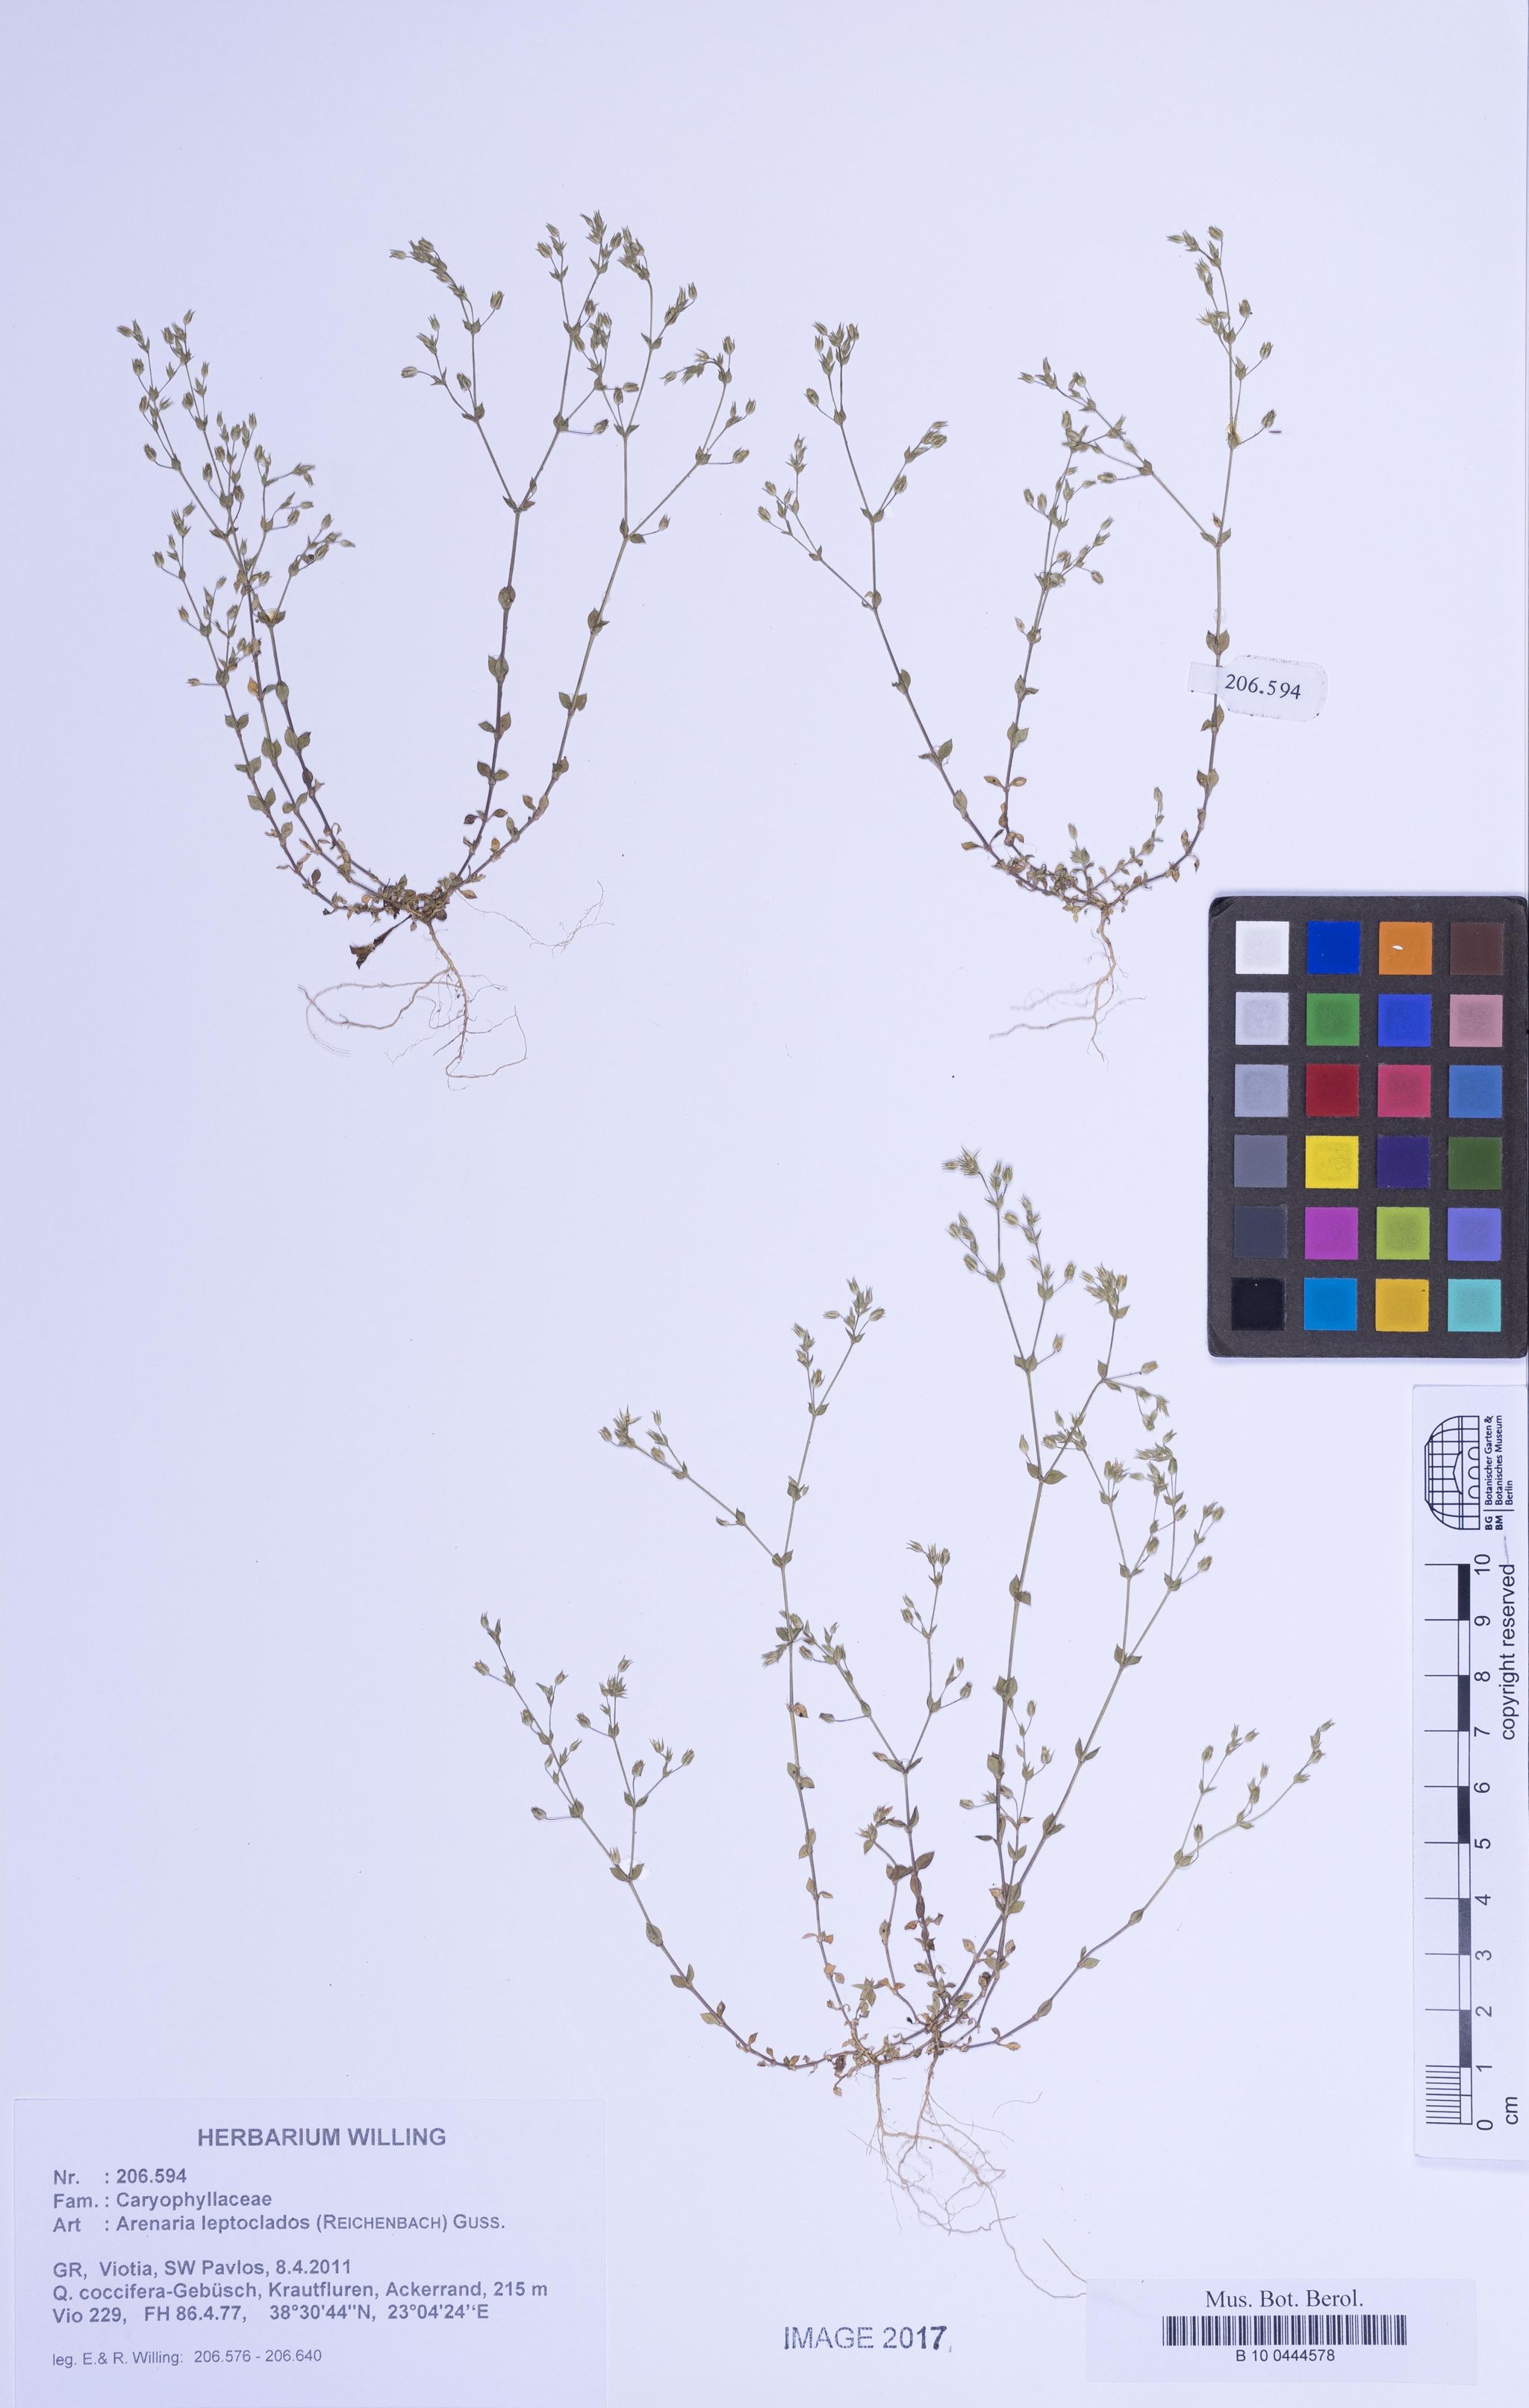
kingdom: Plantae
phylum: Tracheophyta
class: Magnoliopsida
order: Caryophyllales
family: Caryophyllaceae
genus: Arenaria
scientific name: Arenaria leptoclados
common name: Thyme-leaved sandwort
